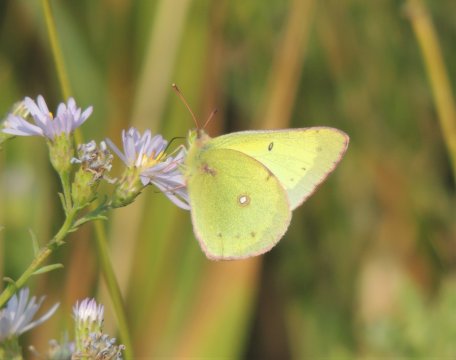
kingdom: Animalia
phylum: Arthropoda
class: Insecta
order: Lepidoptera
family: Pieridae
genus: Colias
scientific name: Colias eurytheme
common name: Orange Sulphur
